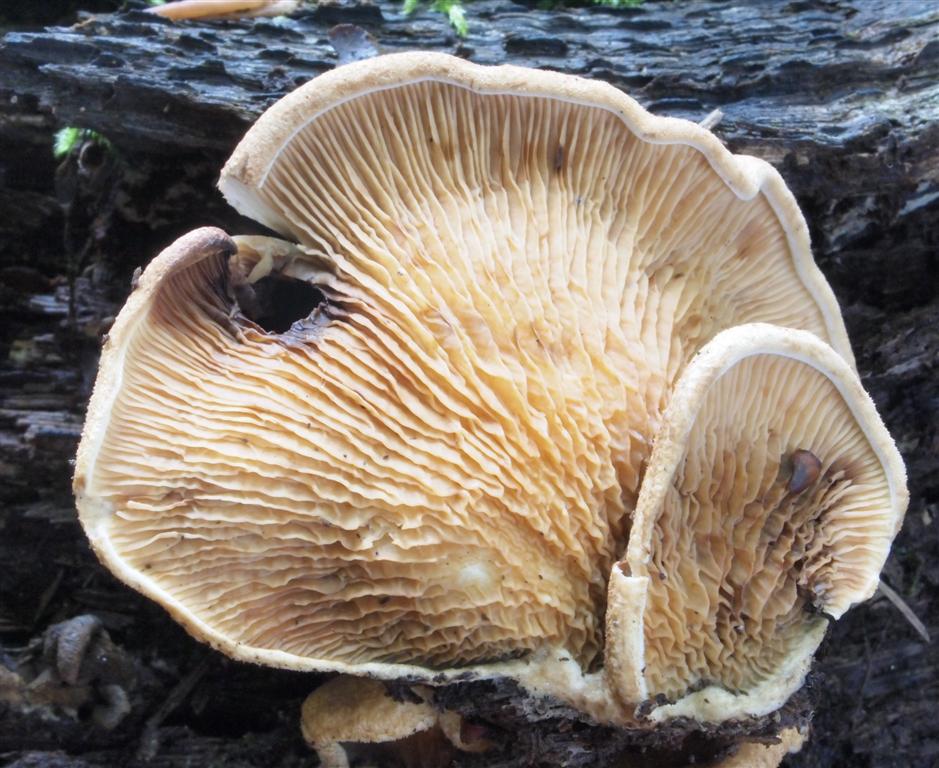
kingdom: Fungi
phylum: Basidiomycota
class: Agaricomycetes
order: Boletales
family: Tapinellaceae
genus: Tapinella
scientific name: Tapinella panuoides
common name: tømmer-viftesvamp
